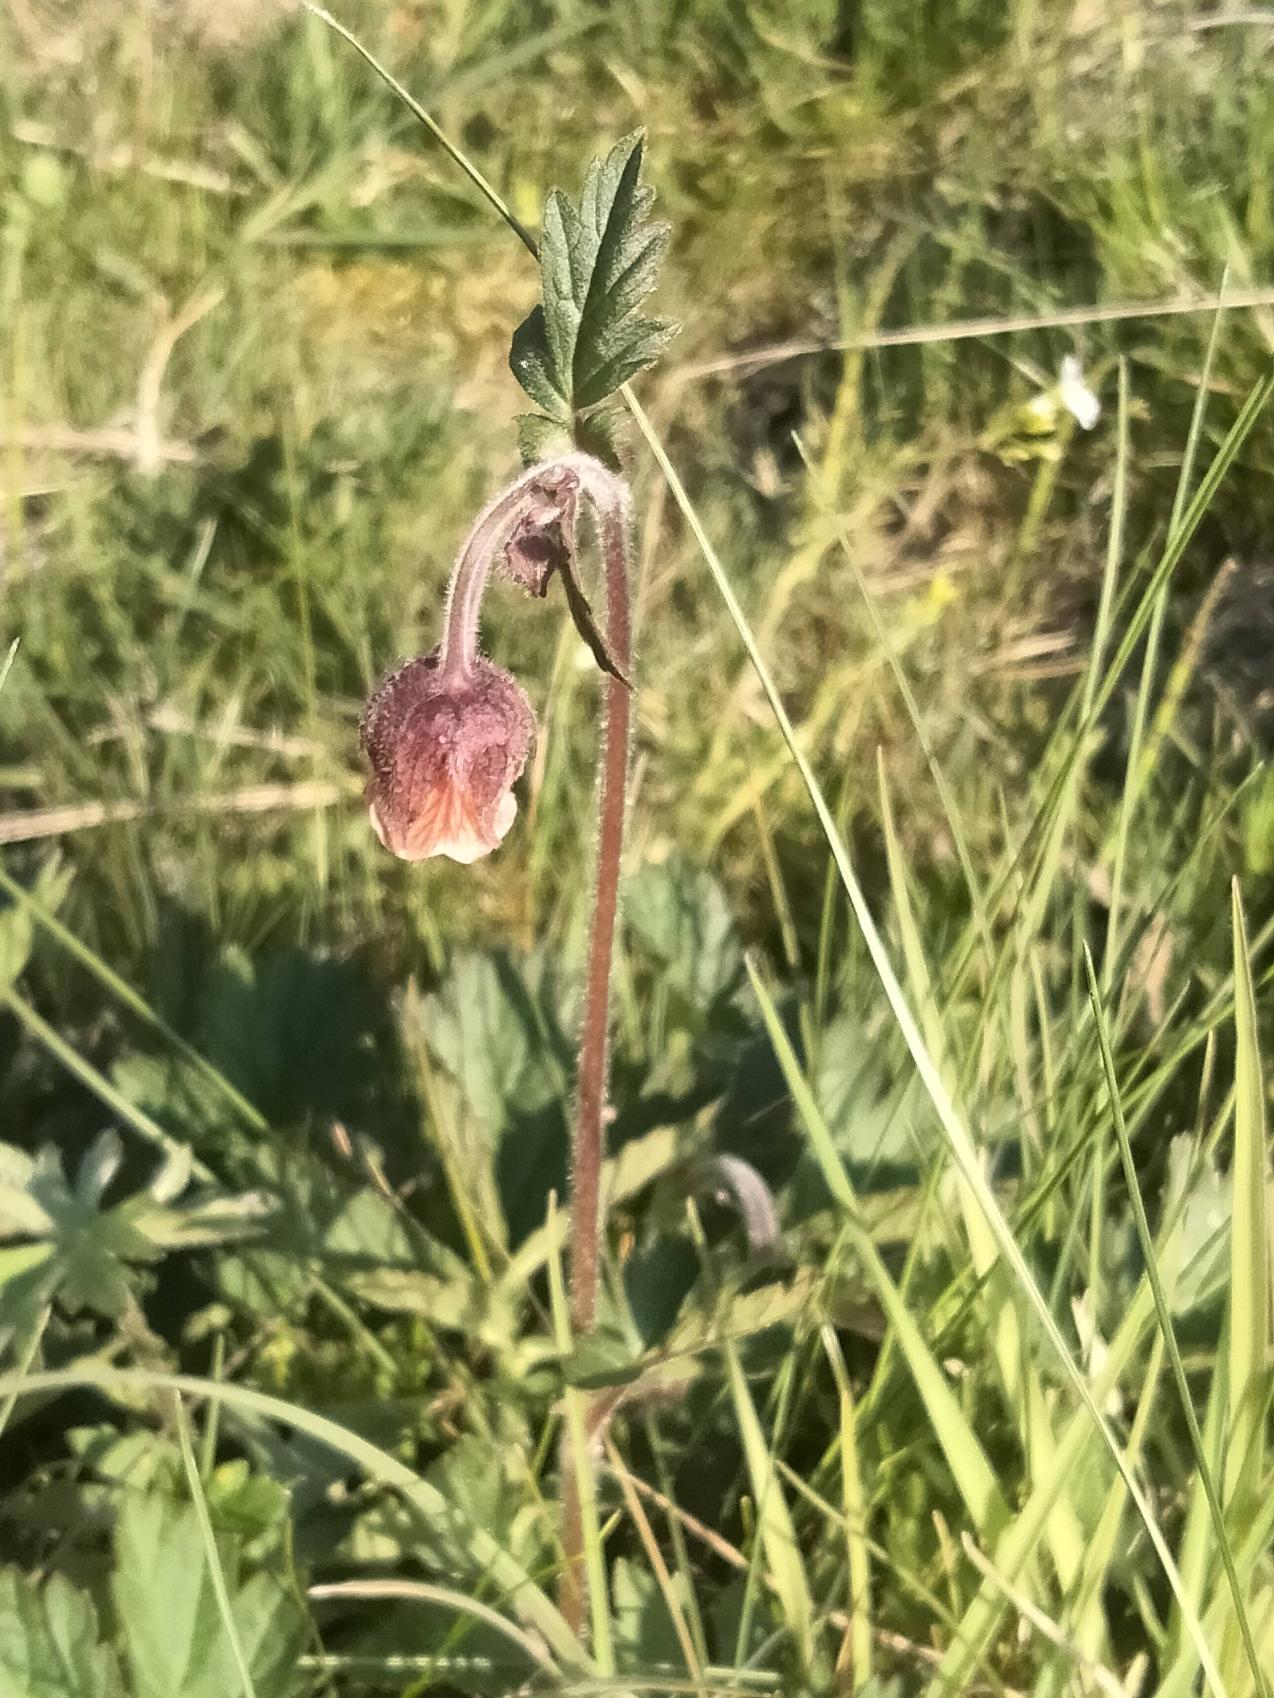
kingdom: Plantae
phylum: Tracheophyta
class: Magnoliopsida
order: Rosales
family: Rosaceae
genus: Geum
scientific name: Geum rivale
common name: Eng-nellikerod
